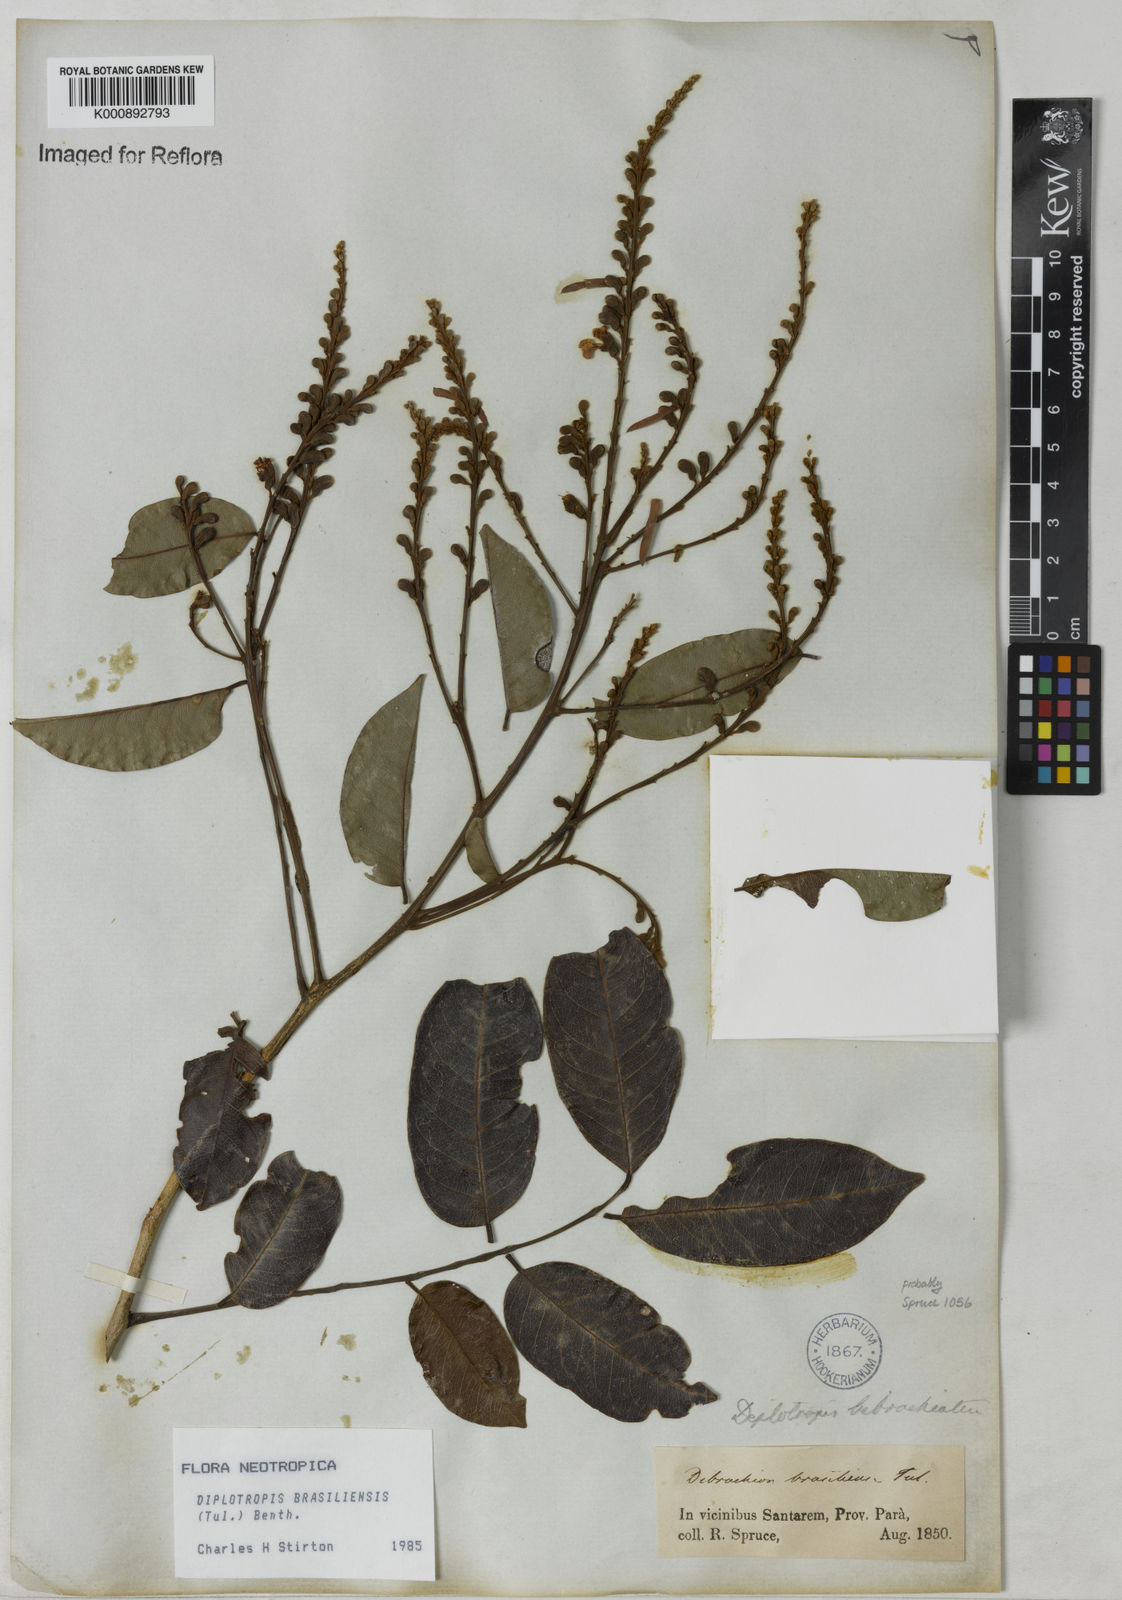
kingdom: Plantae
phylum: Tracheophyta
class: Magnoliopsida
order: Fabales
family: Fabaceae
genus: Diplotropis
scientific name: Diplotropis brasiliensis
